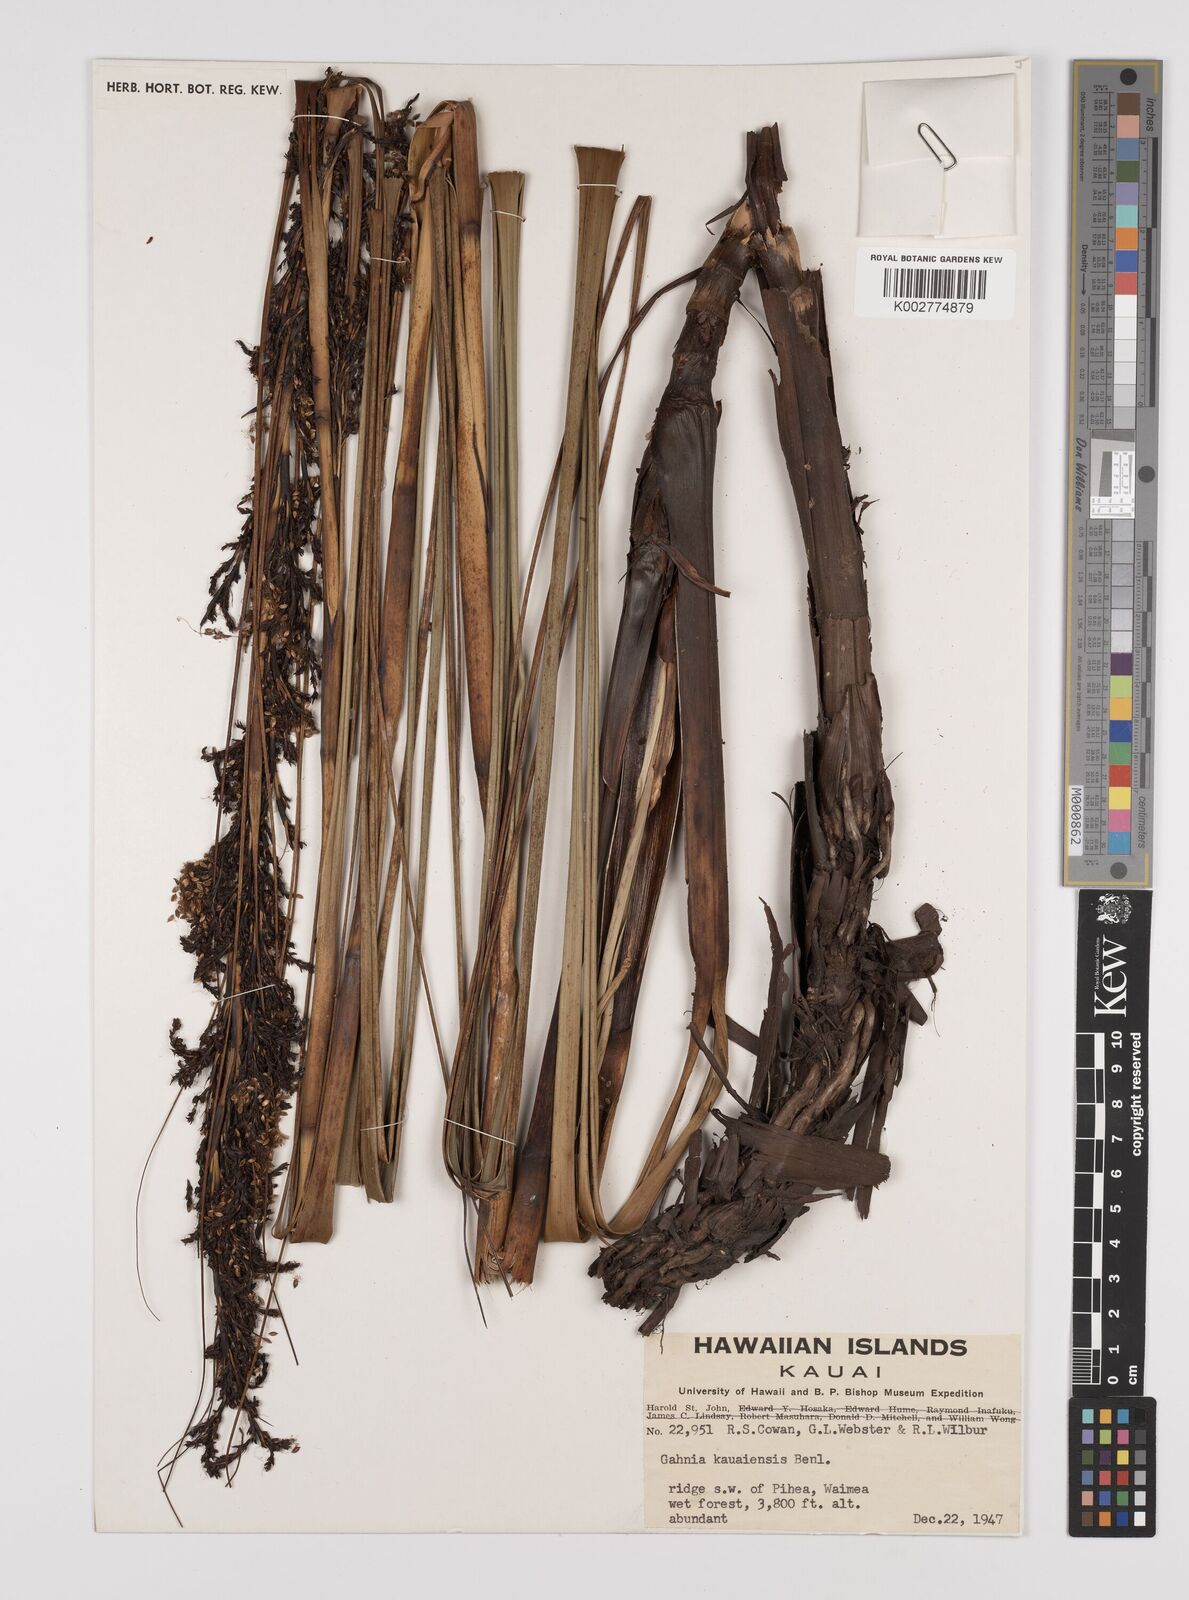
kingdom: Plantae
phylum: Tracheophyta
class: Liliopsida
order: Poales
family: Cyperaceae
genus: Gahnia
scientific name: Gahnia vitiensis
